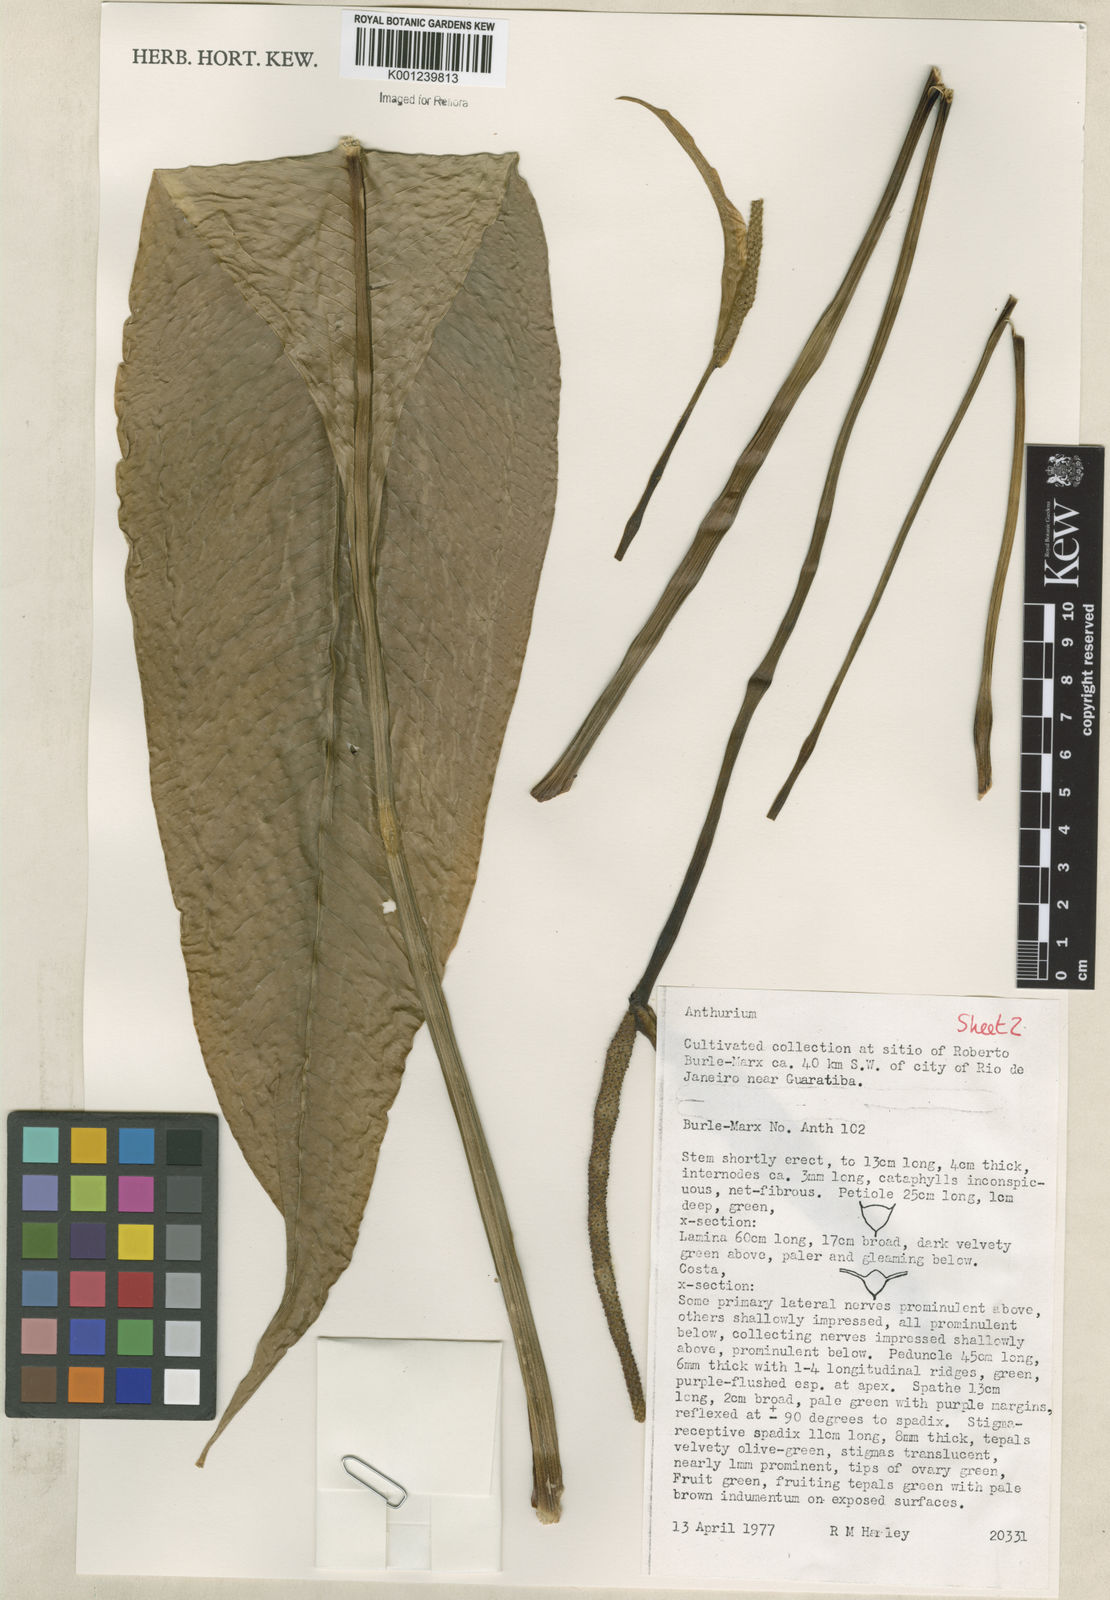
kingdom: Plantae
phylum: Tracheophyta
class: Liliopsida
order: Alismatales
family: Araceae
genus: Anthurium
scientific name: Anthurium
